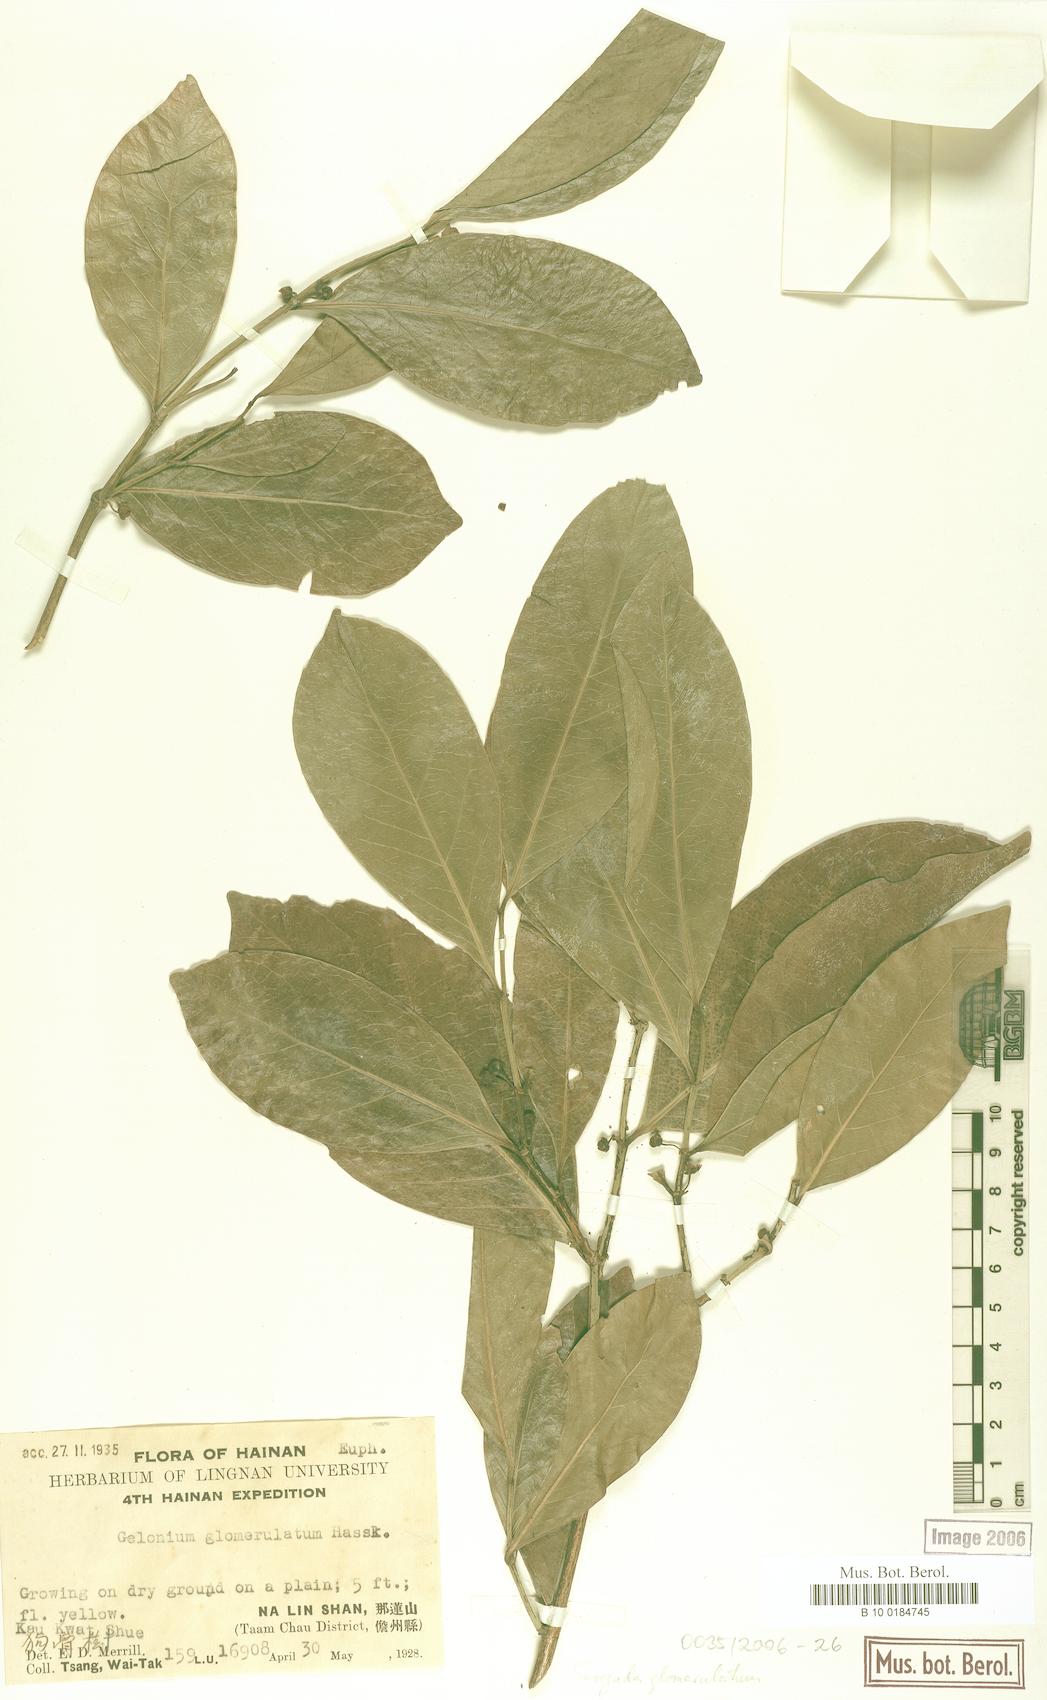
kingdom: Plantae
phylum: Tracheophyta
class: Magnoliopsida
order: Malpighiales
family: Euphorbiaceae
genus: Suregada
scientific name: Suregada glomerulata
